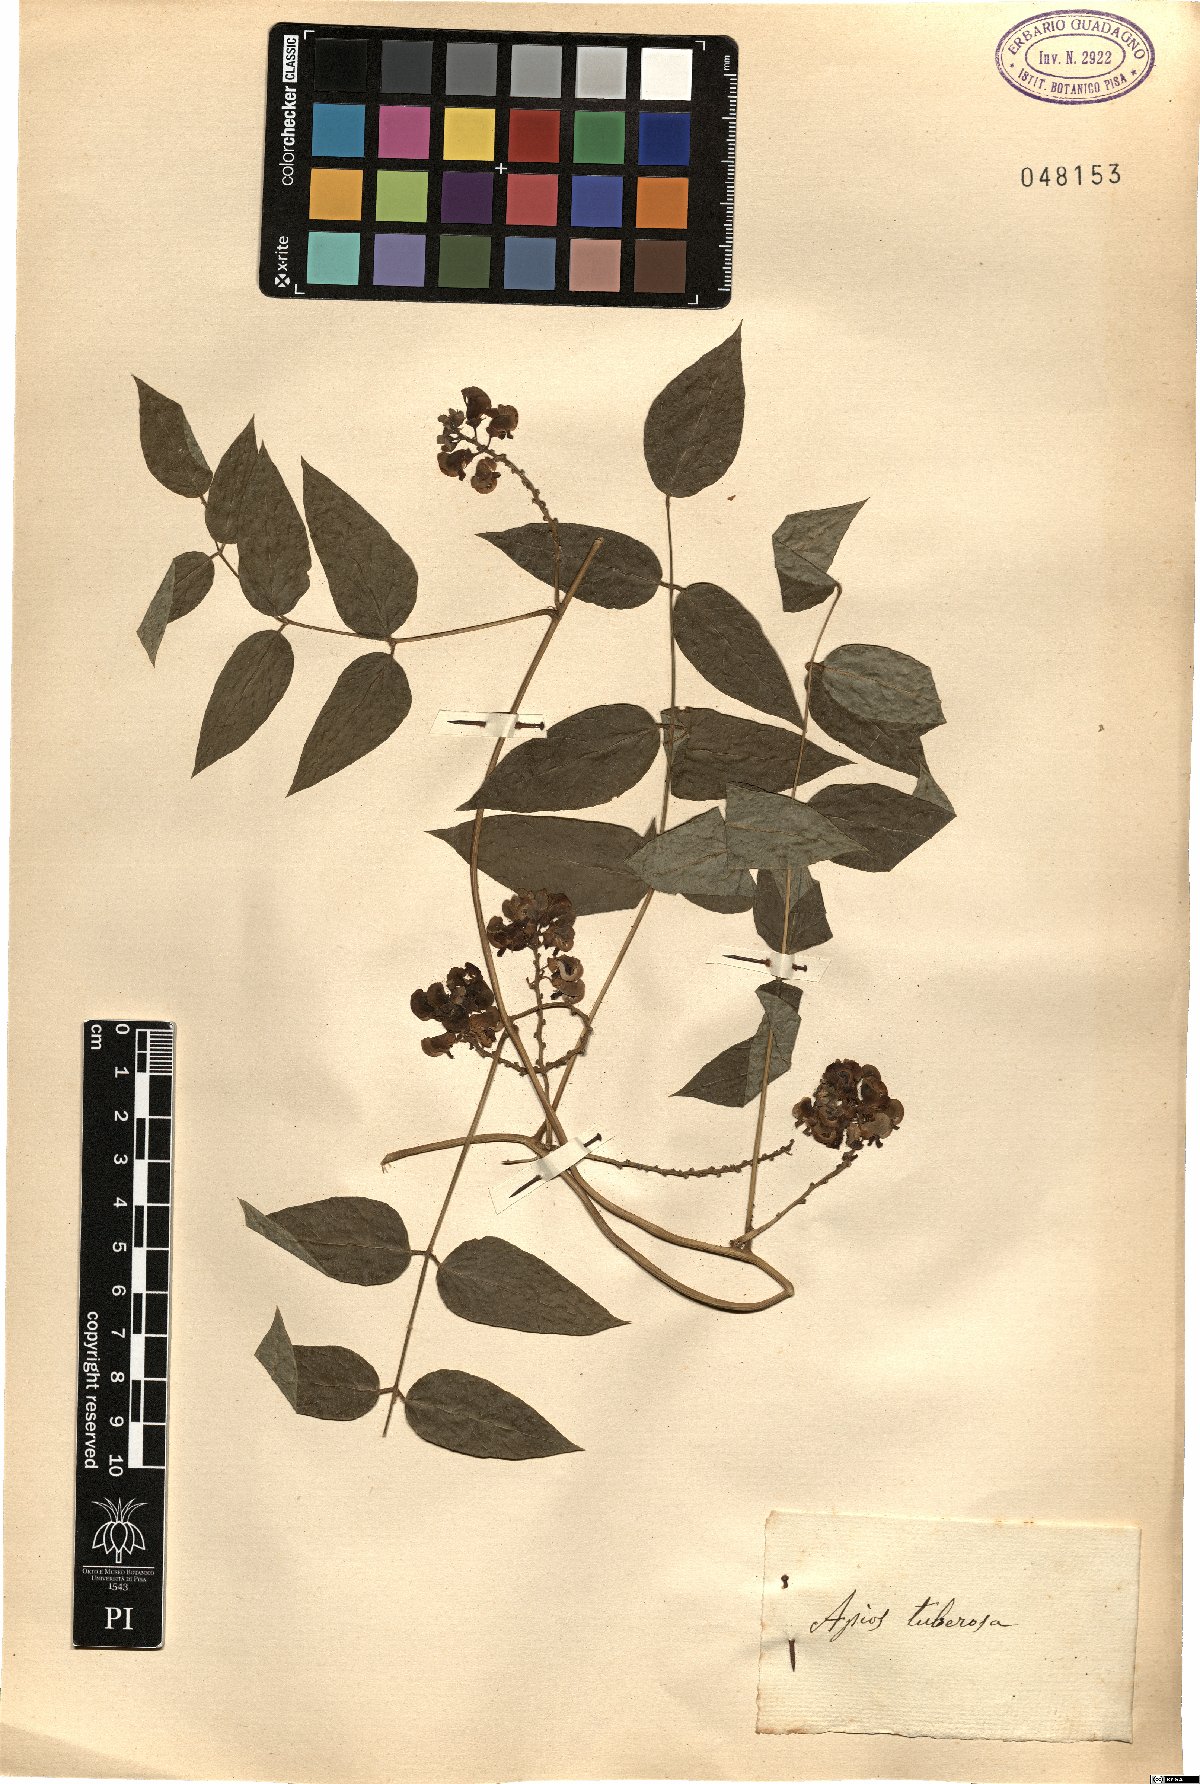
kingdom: Plantae
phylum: Tracheophyta
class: Magnoliopsida
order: Fabales
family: Fabaceae
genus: Apios
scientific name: Apios americana
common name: American potato-bean
